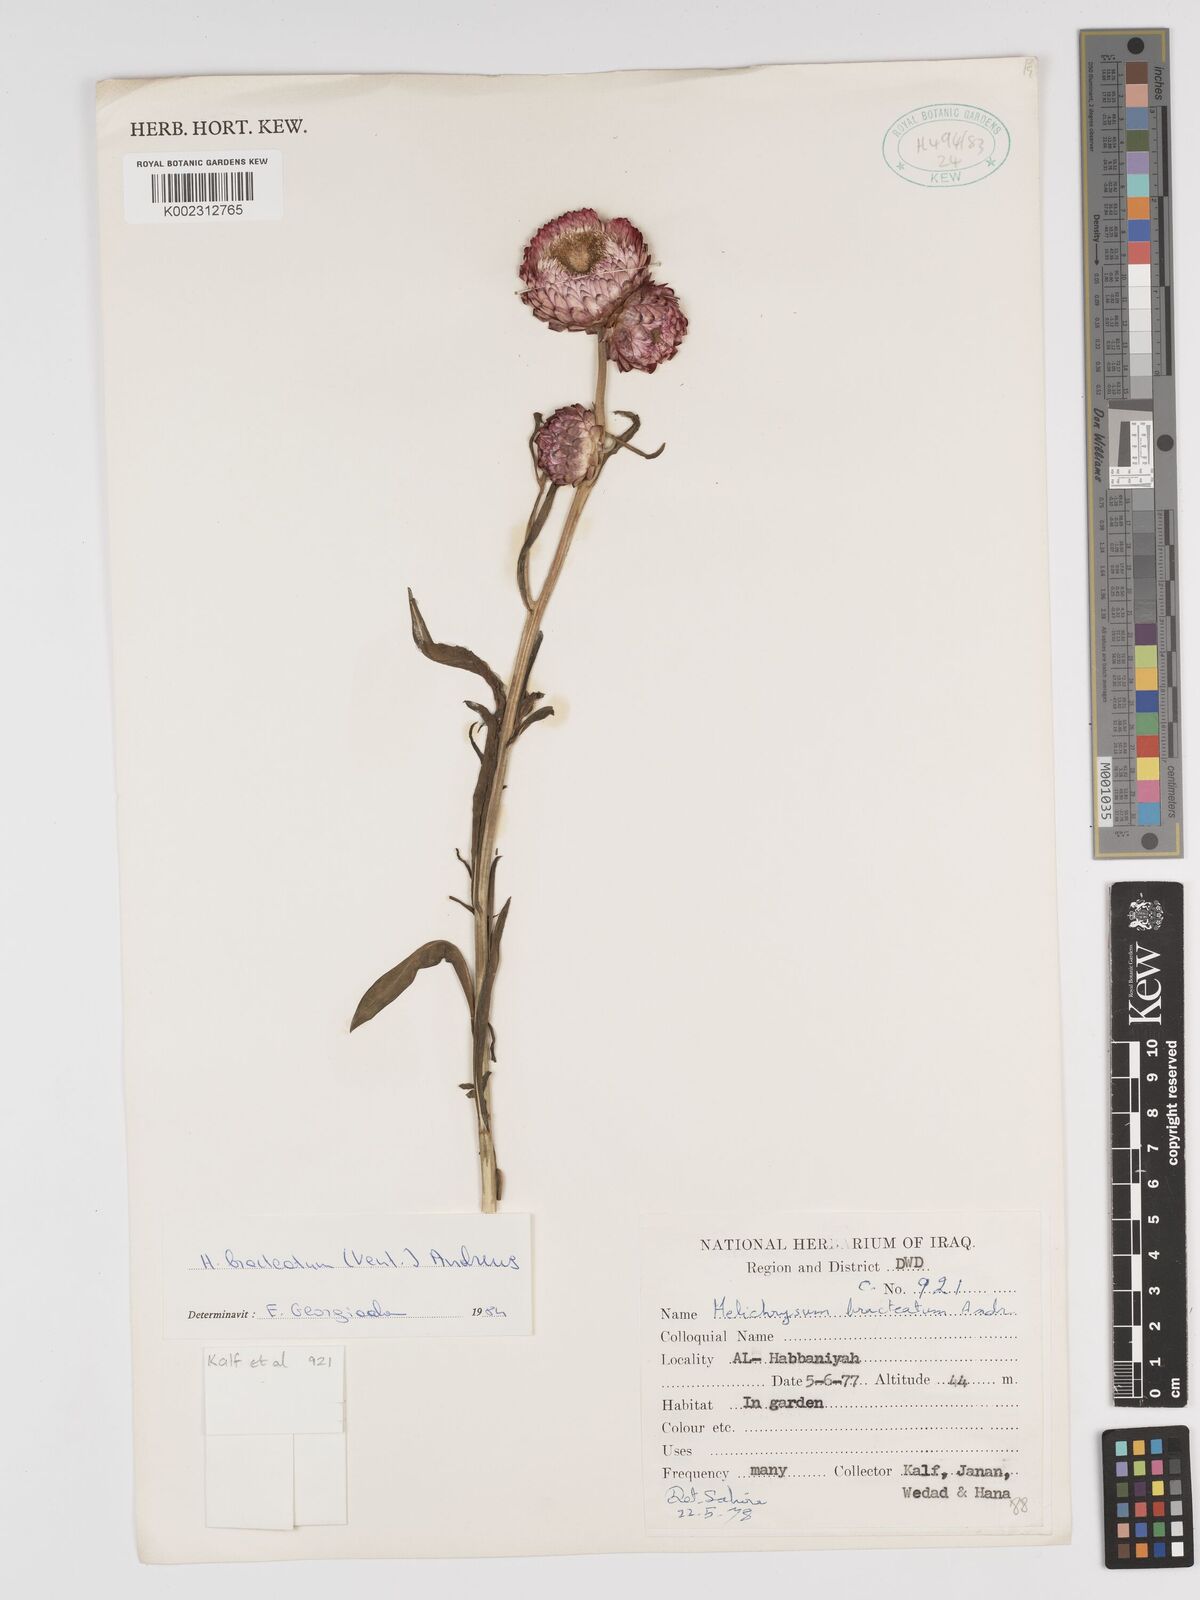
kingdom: Plantae
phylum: Tracheophyta
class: Magnoliopsida
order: Asterales
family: Asteraceae
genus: Xerochrysum
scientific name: Xerochrysum bracteatum
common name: Bracted strawflower
